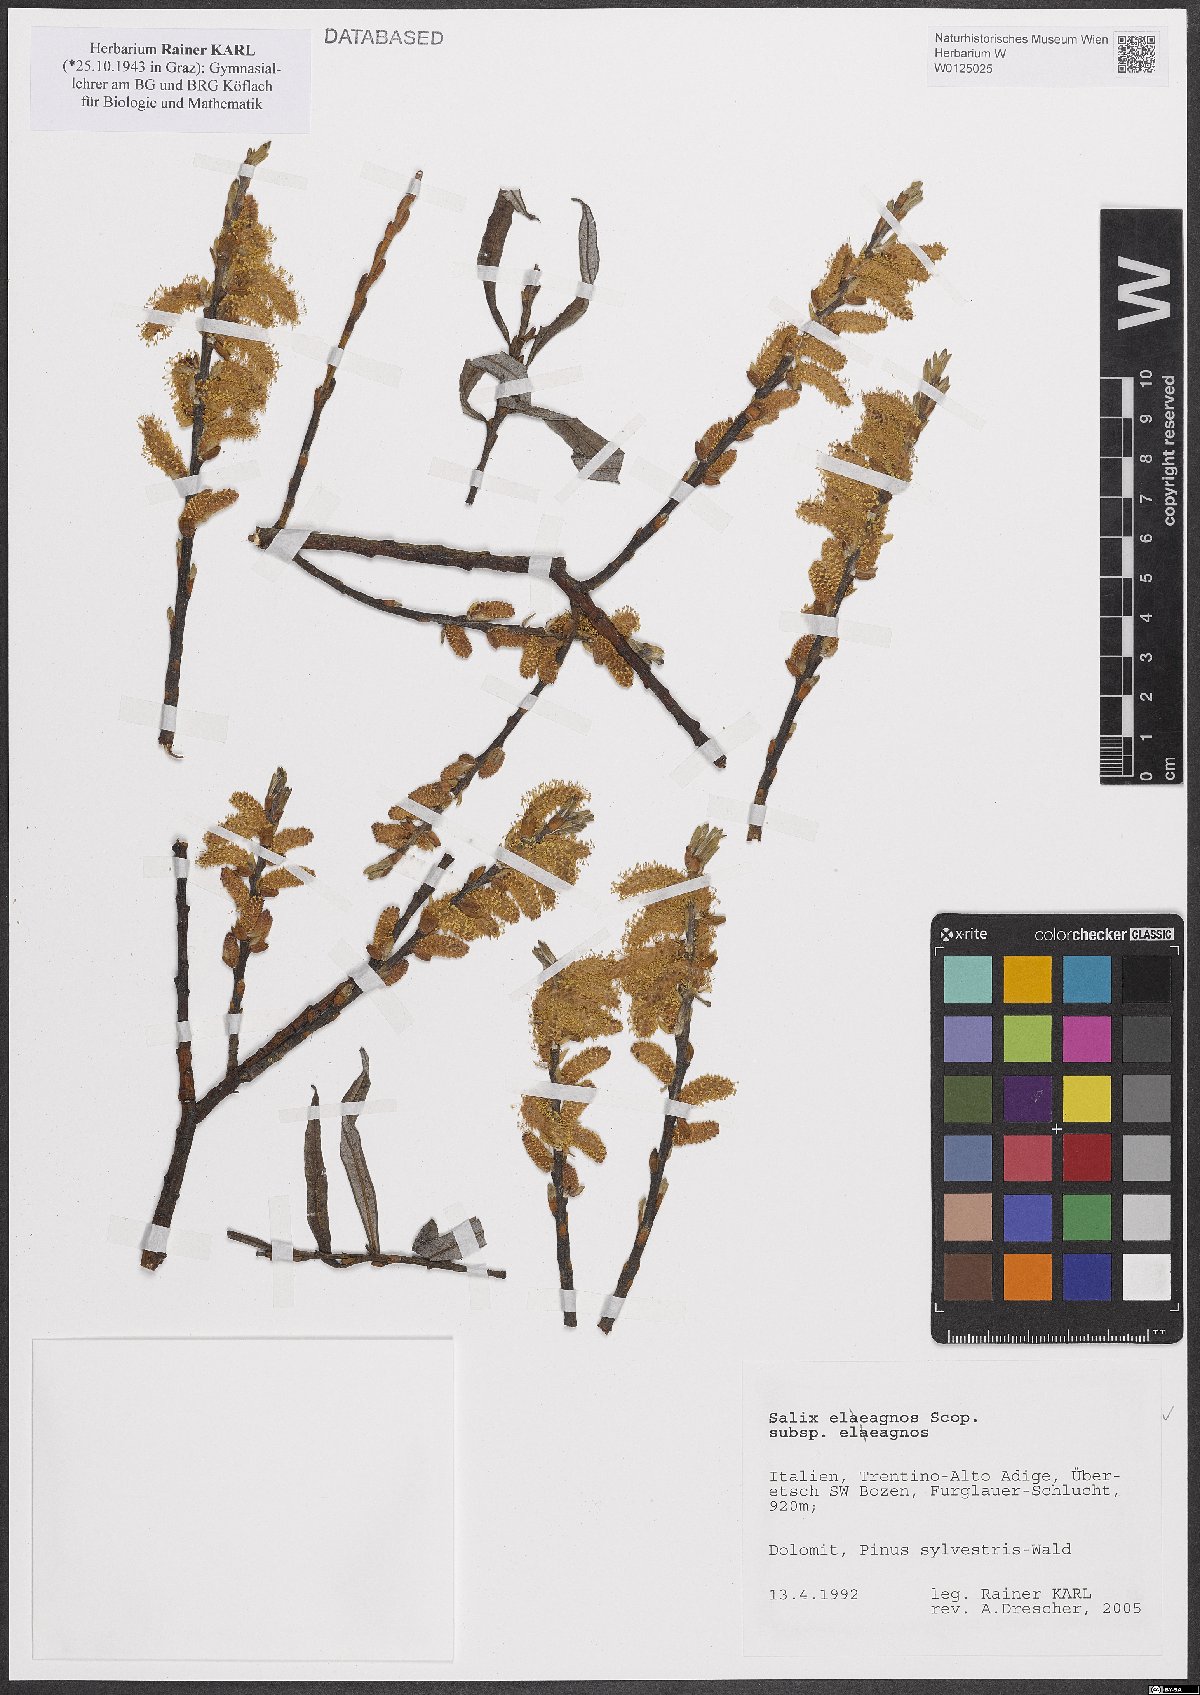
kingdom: Plantae
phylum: Tracheophyta
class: Magnoliopsida
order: Malpighiales
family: Salicaceae
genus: Salix
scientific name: Salix eleagnos
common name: Elaeagnus willow
